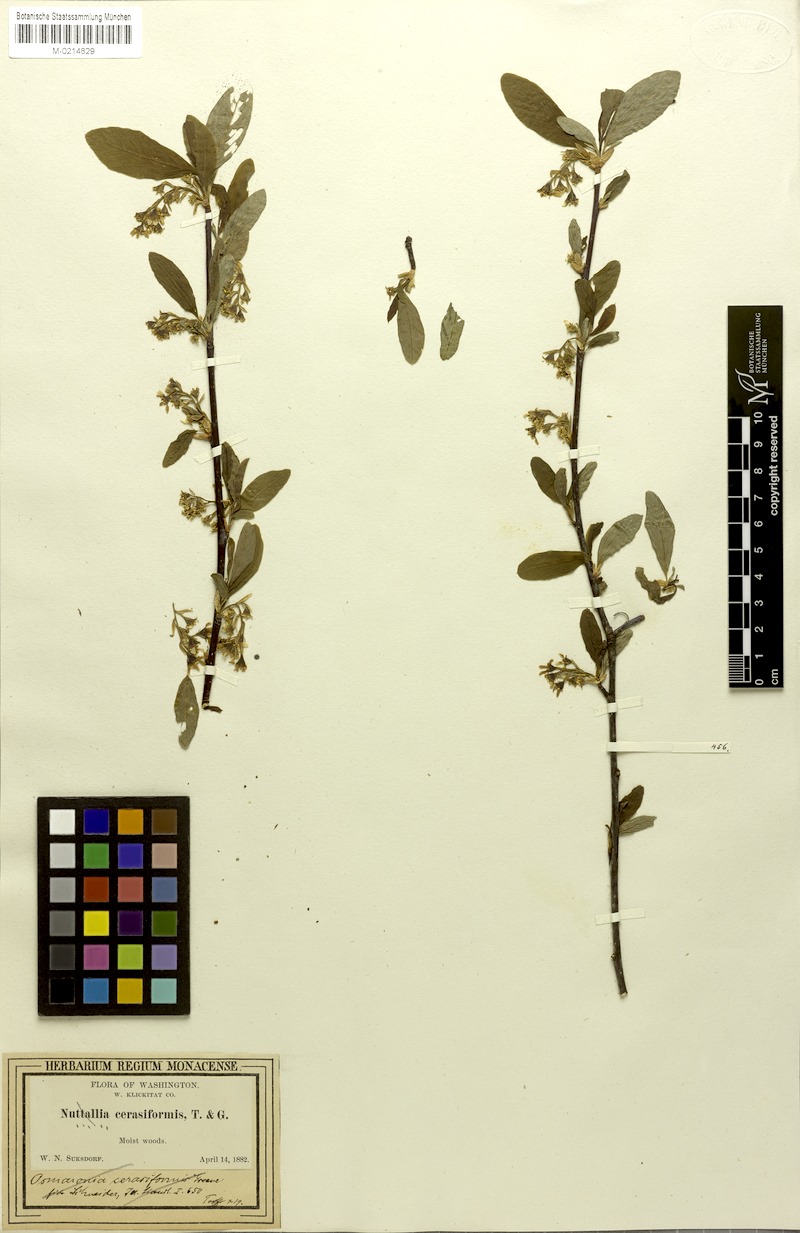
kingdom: Plantae
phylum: Tracheophyta
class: Magnoliopsida
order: Rosales
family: Rosaceae
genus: Oemleria
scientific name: Oemleria cerasiformis
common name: Osoberry
